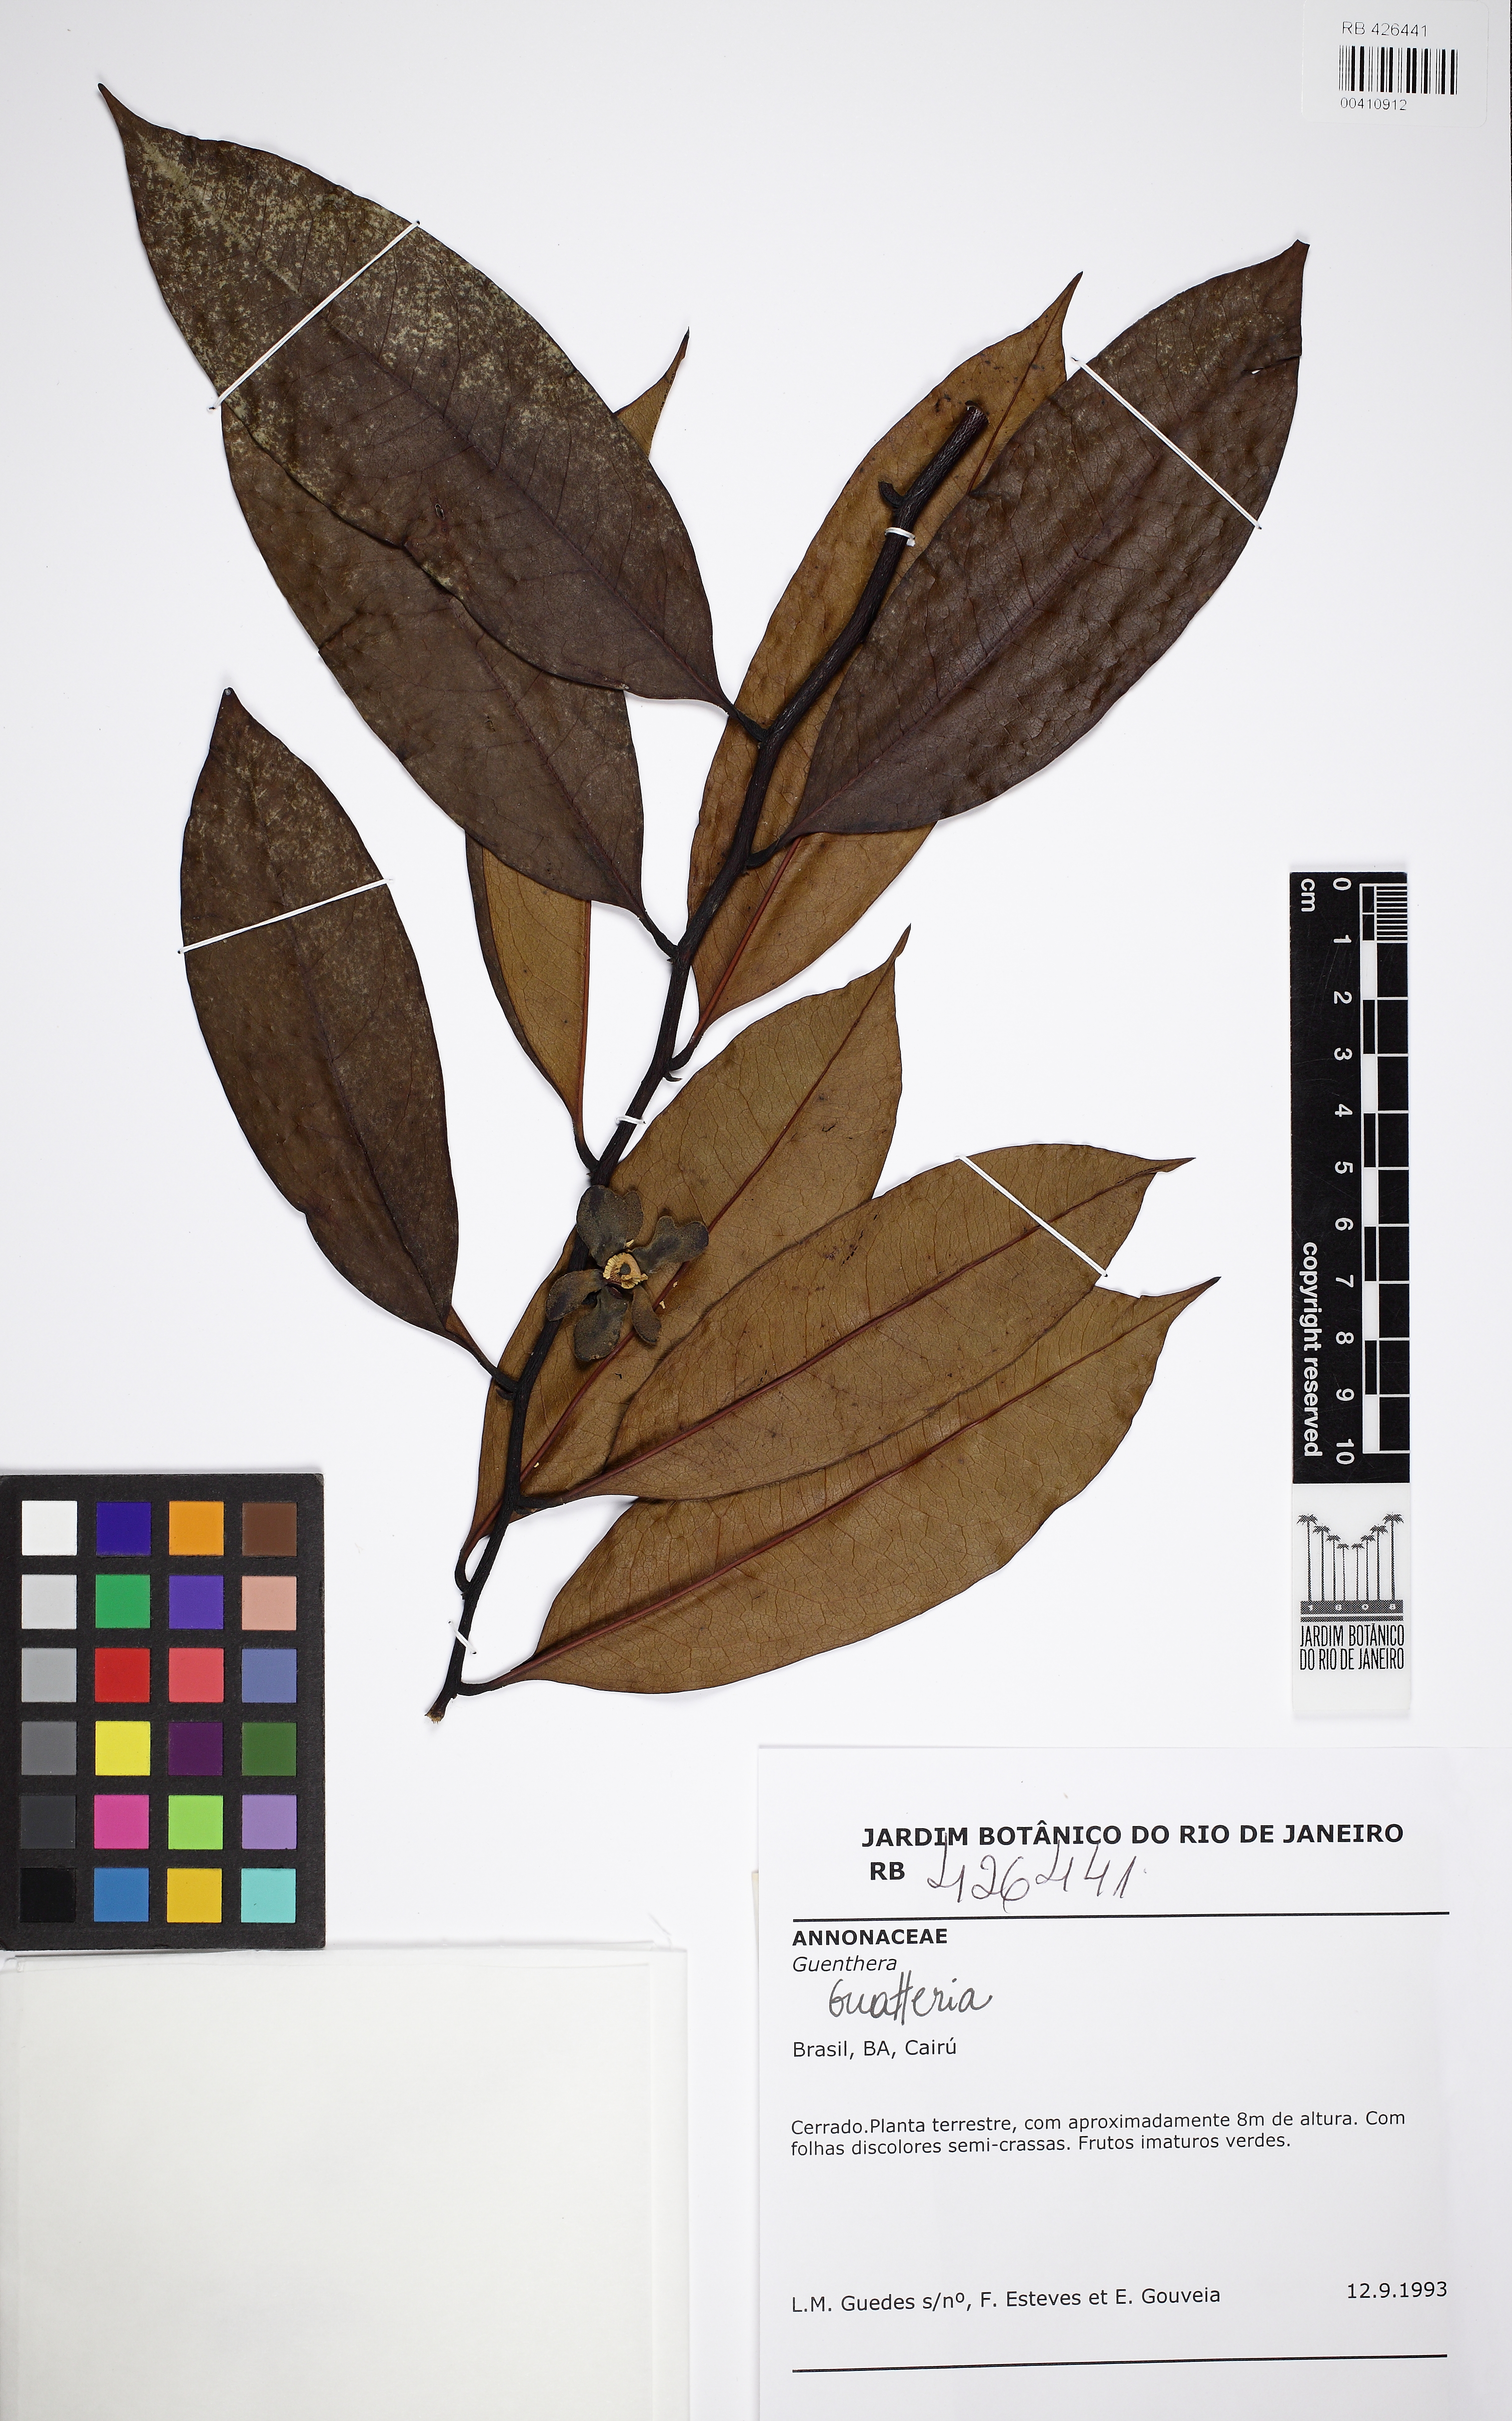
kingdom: Plantae
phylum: Tracheophyta
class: Magnoliopsida
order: Magnoliales
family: Annonaceae
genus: Guatteria
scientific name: Guatteria
